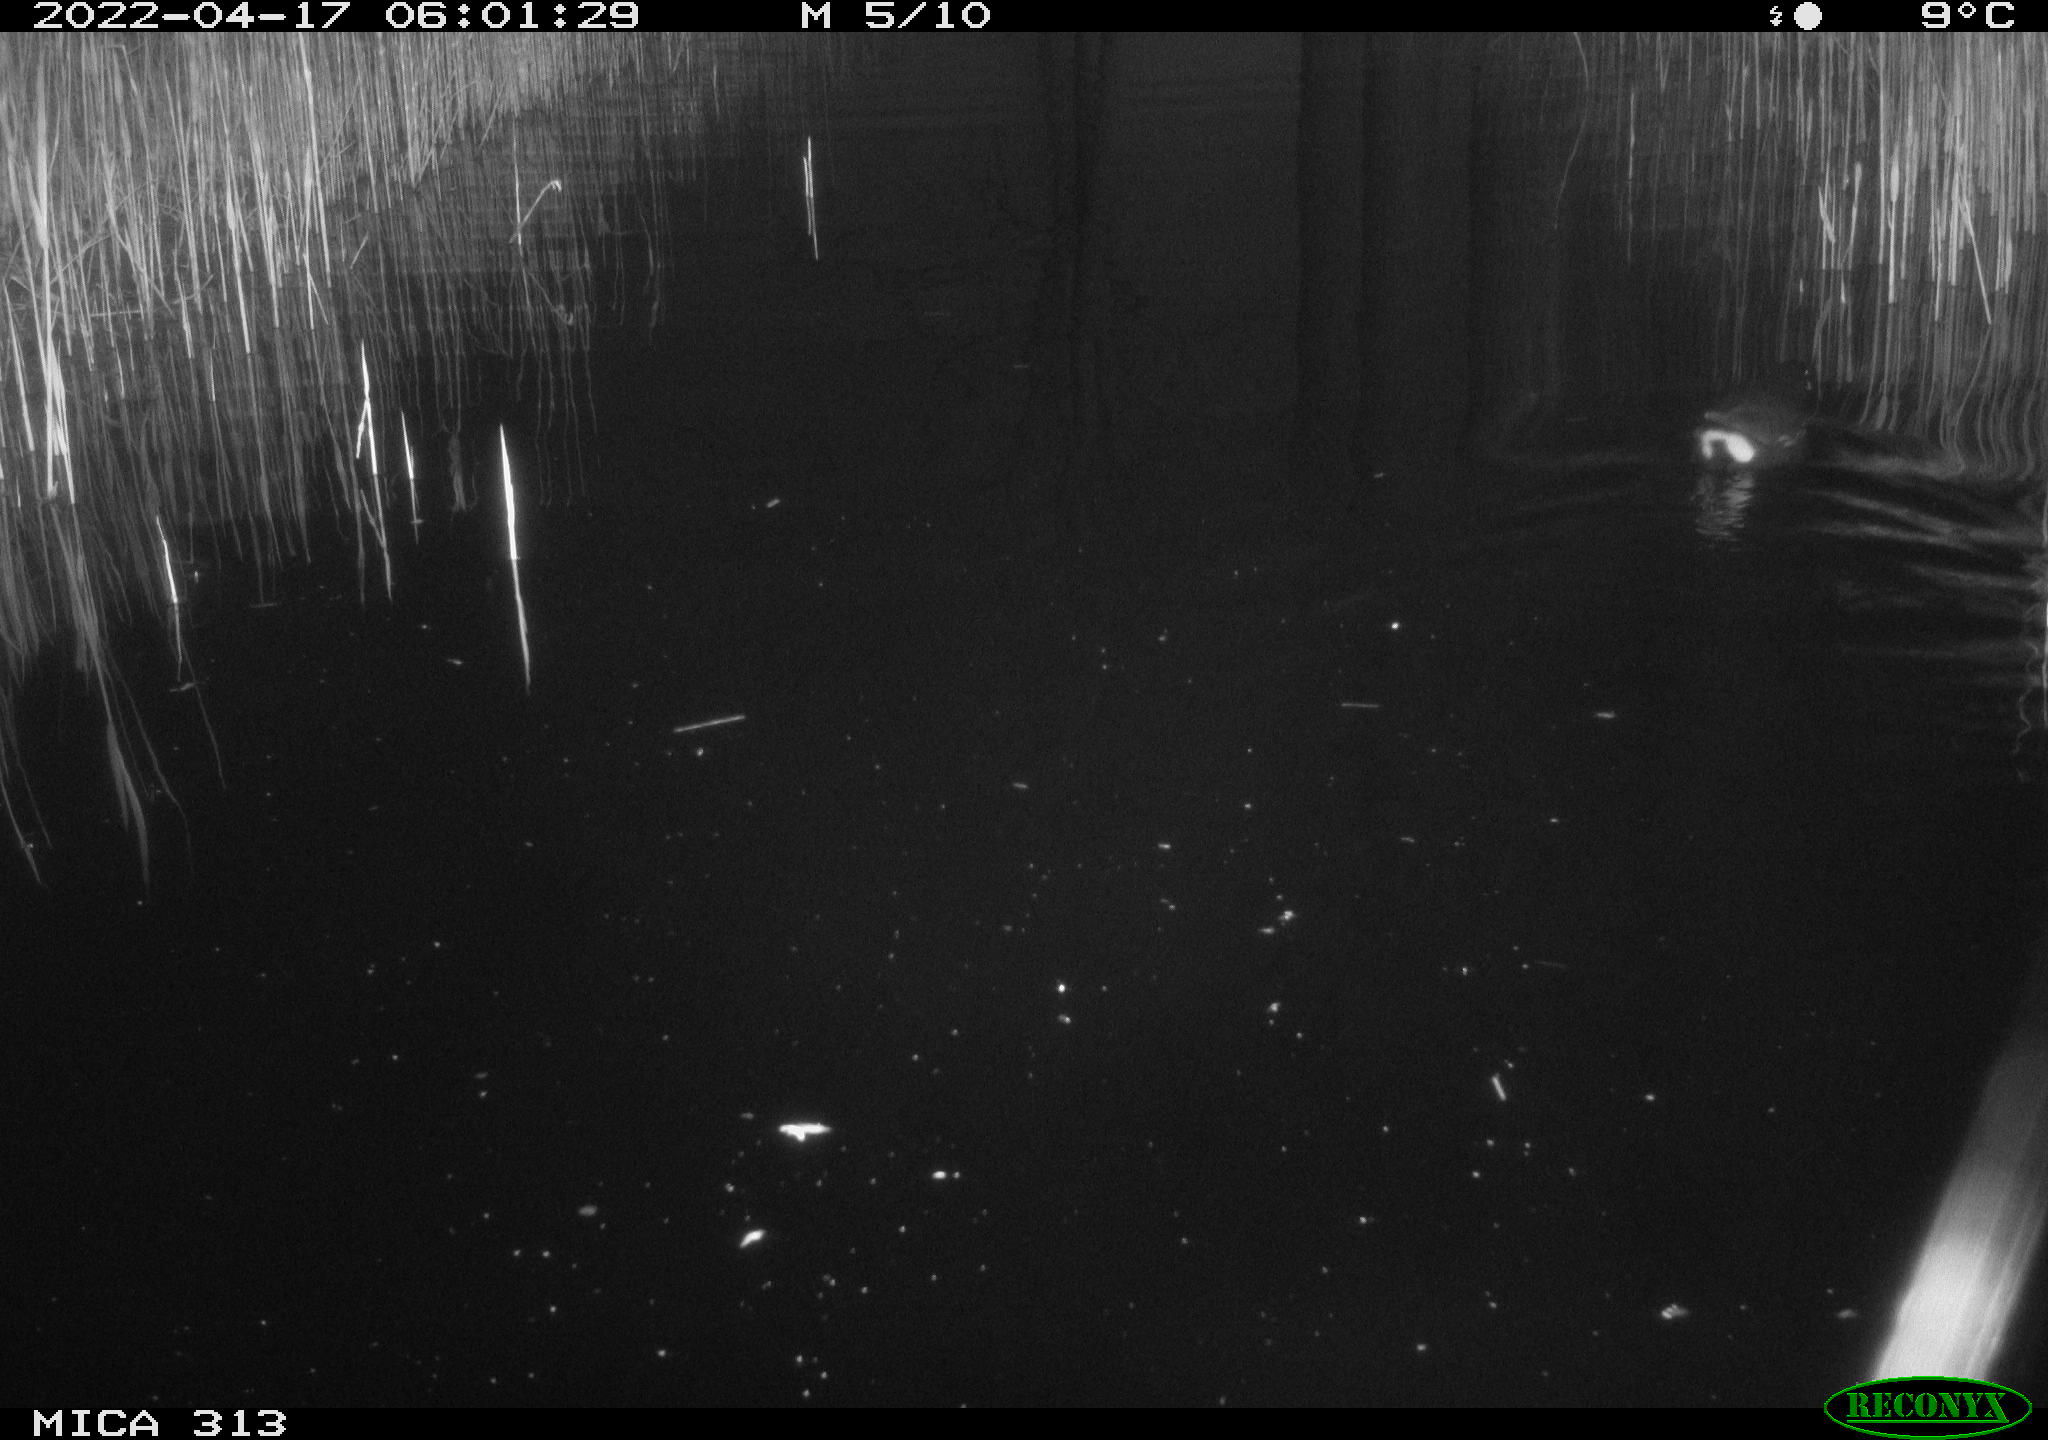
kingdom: Animalia
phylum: Chordata
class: Aves
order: Gruiformes
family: Rallidae
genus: Gallinula
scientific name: Gallinula chloropus
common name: Common moorhen
